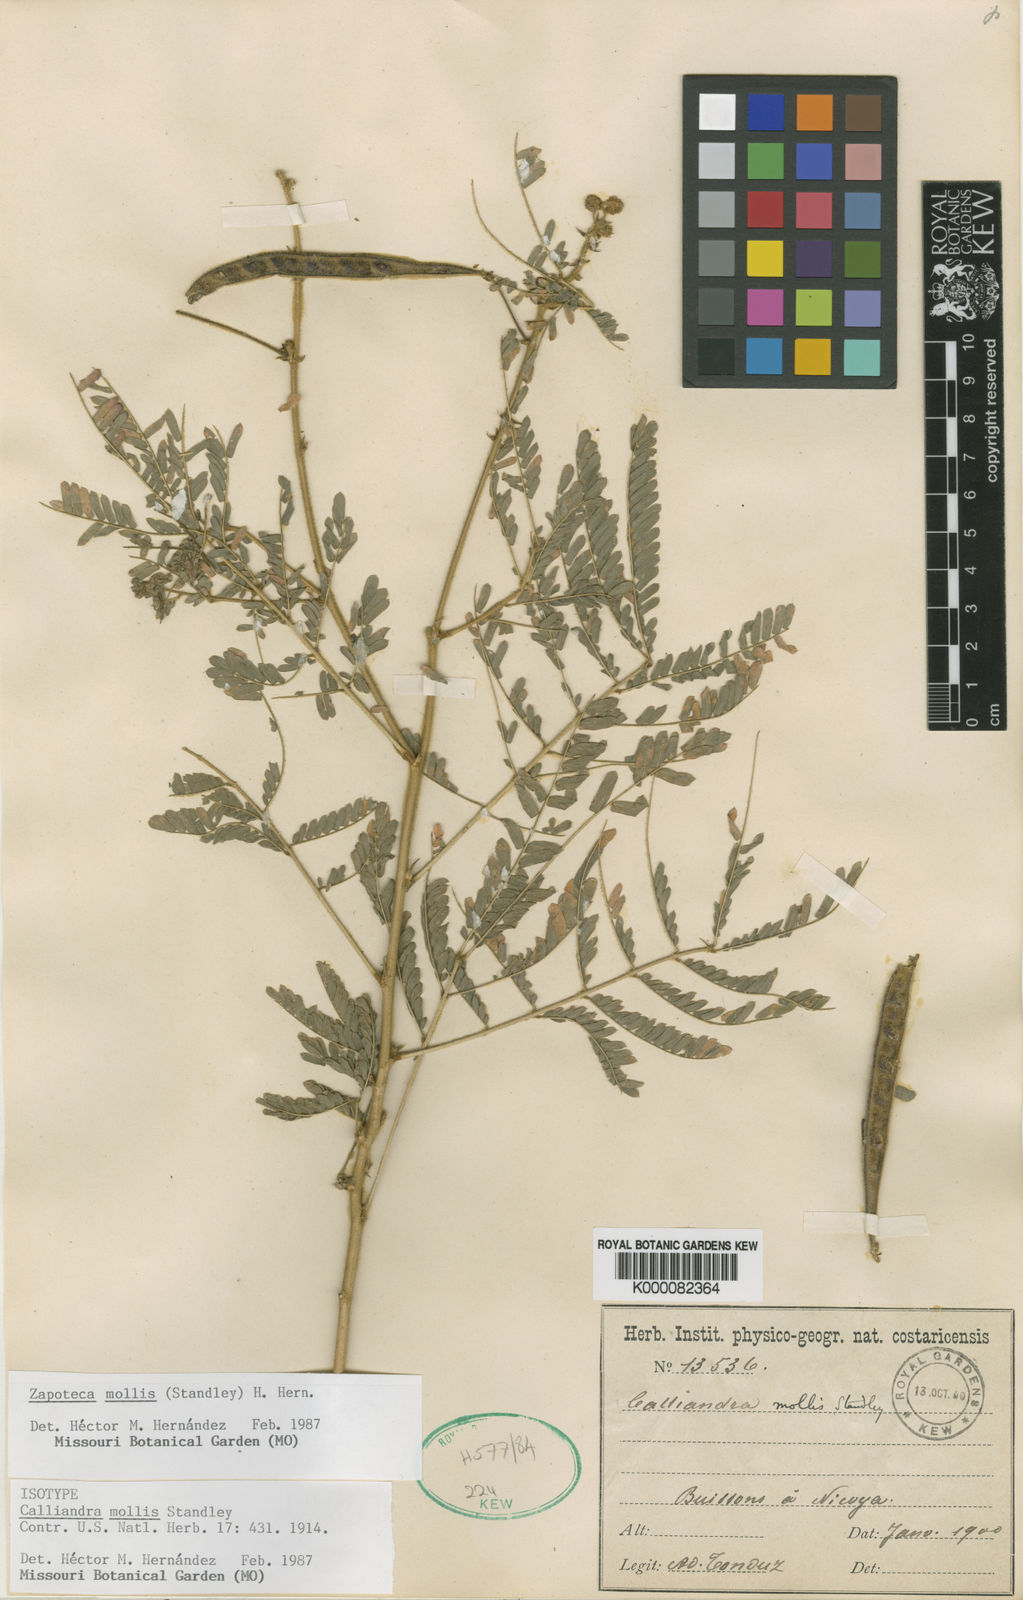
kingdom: Plantae
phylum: Tracheophyta
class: Magnoliopsida
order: Fabales
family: Fabaceae
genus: Zapoteca
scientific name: Zapoteca mollis
